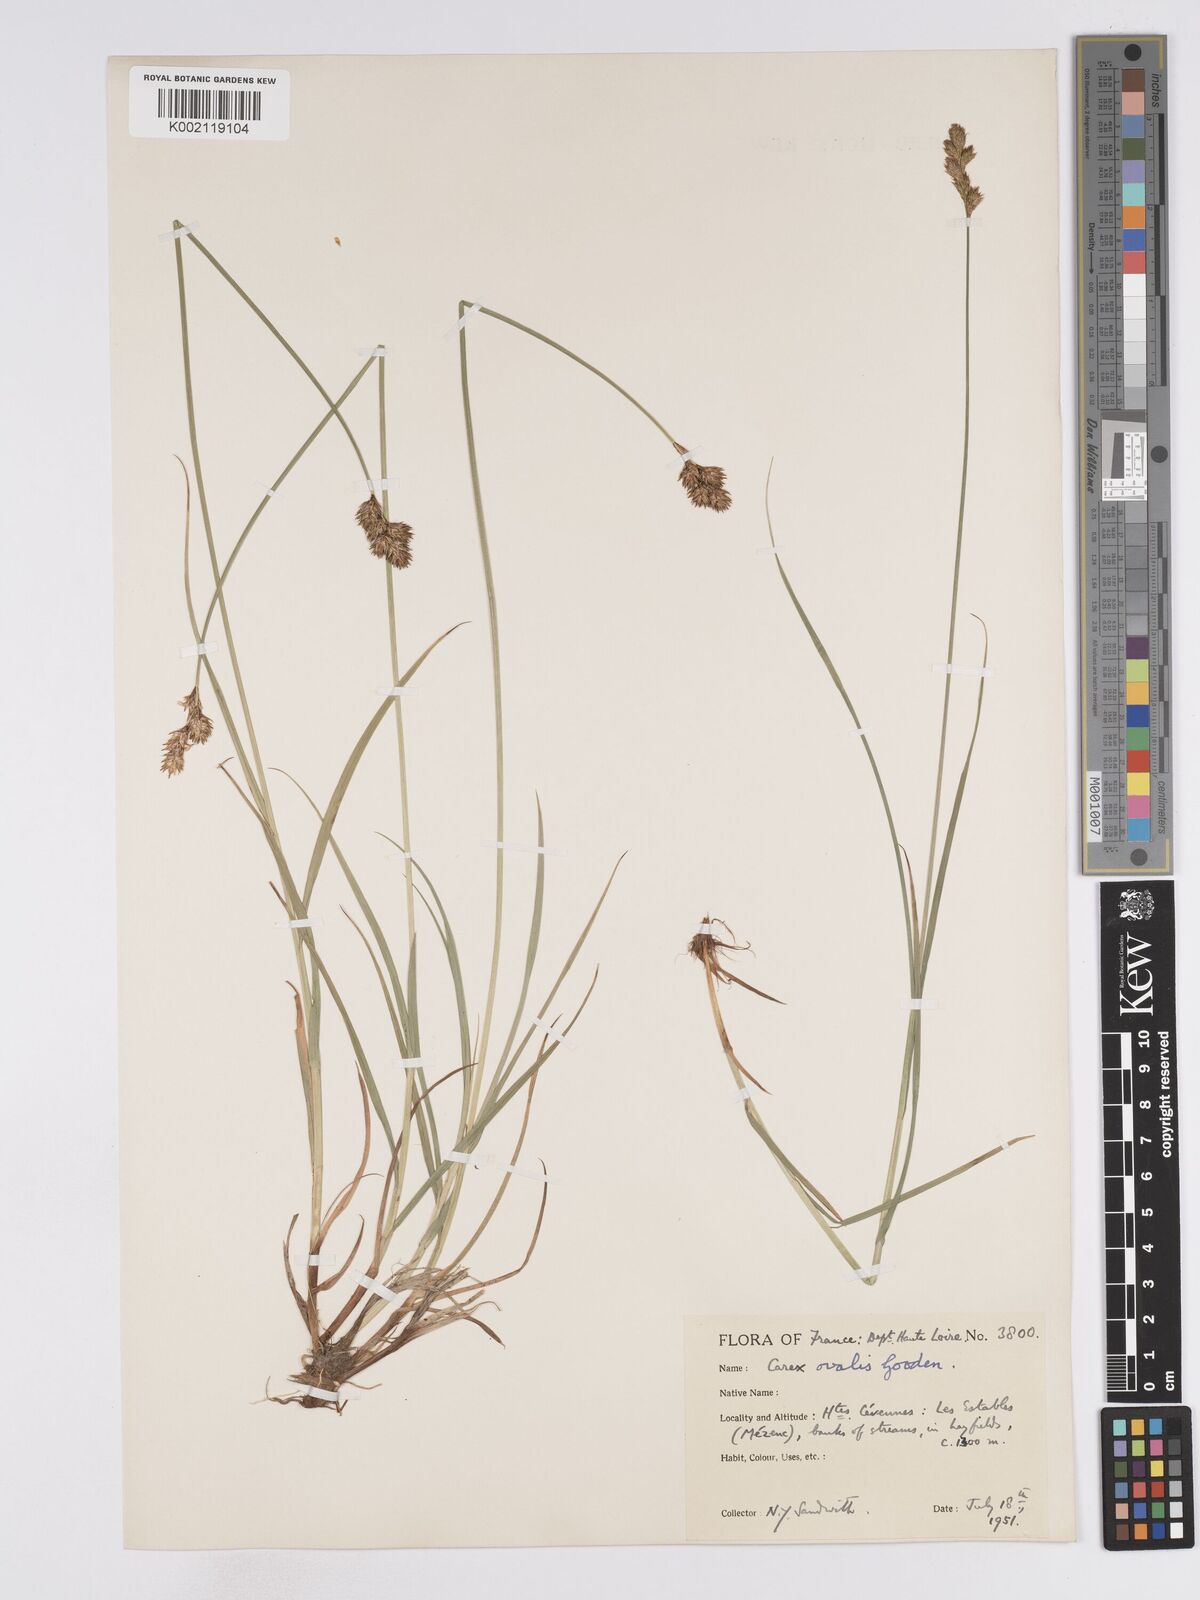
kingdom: Plantae
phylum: Tracheophyta
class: Liliopsida
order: Poales
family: Cyperaceae
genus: Carex
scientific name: Carex leporina
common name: Oval sedge
